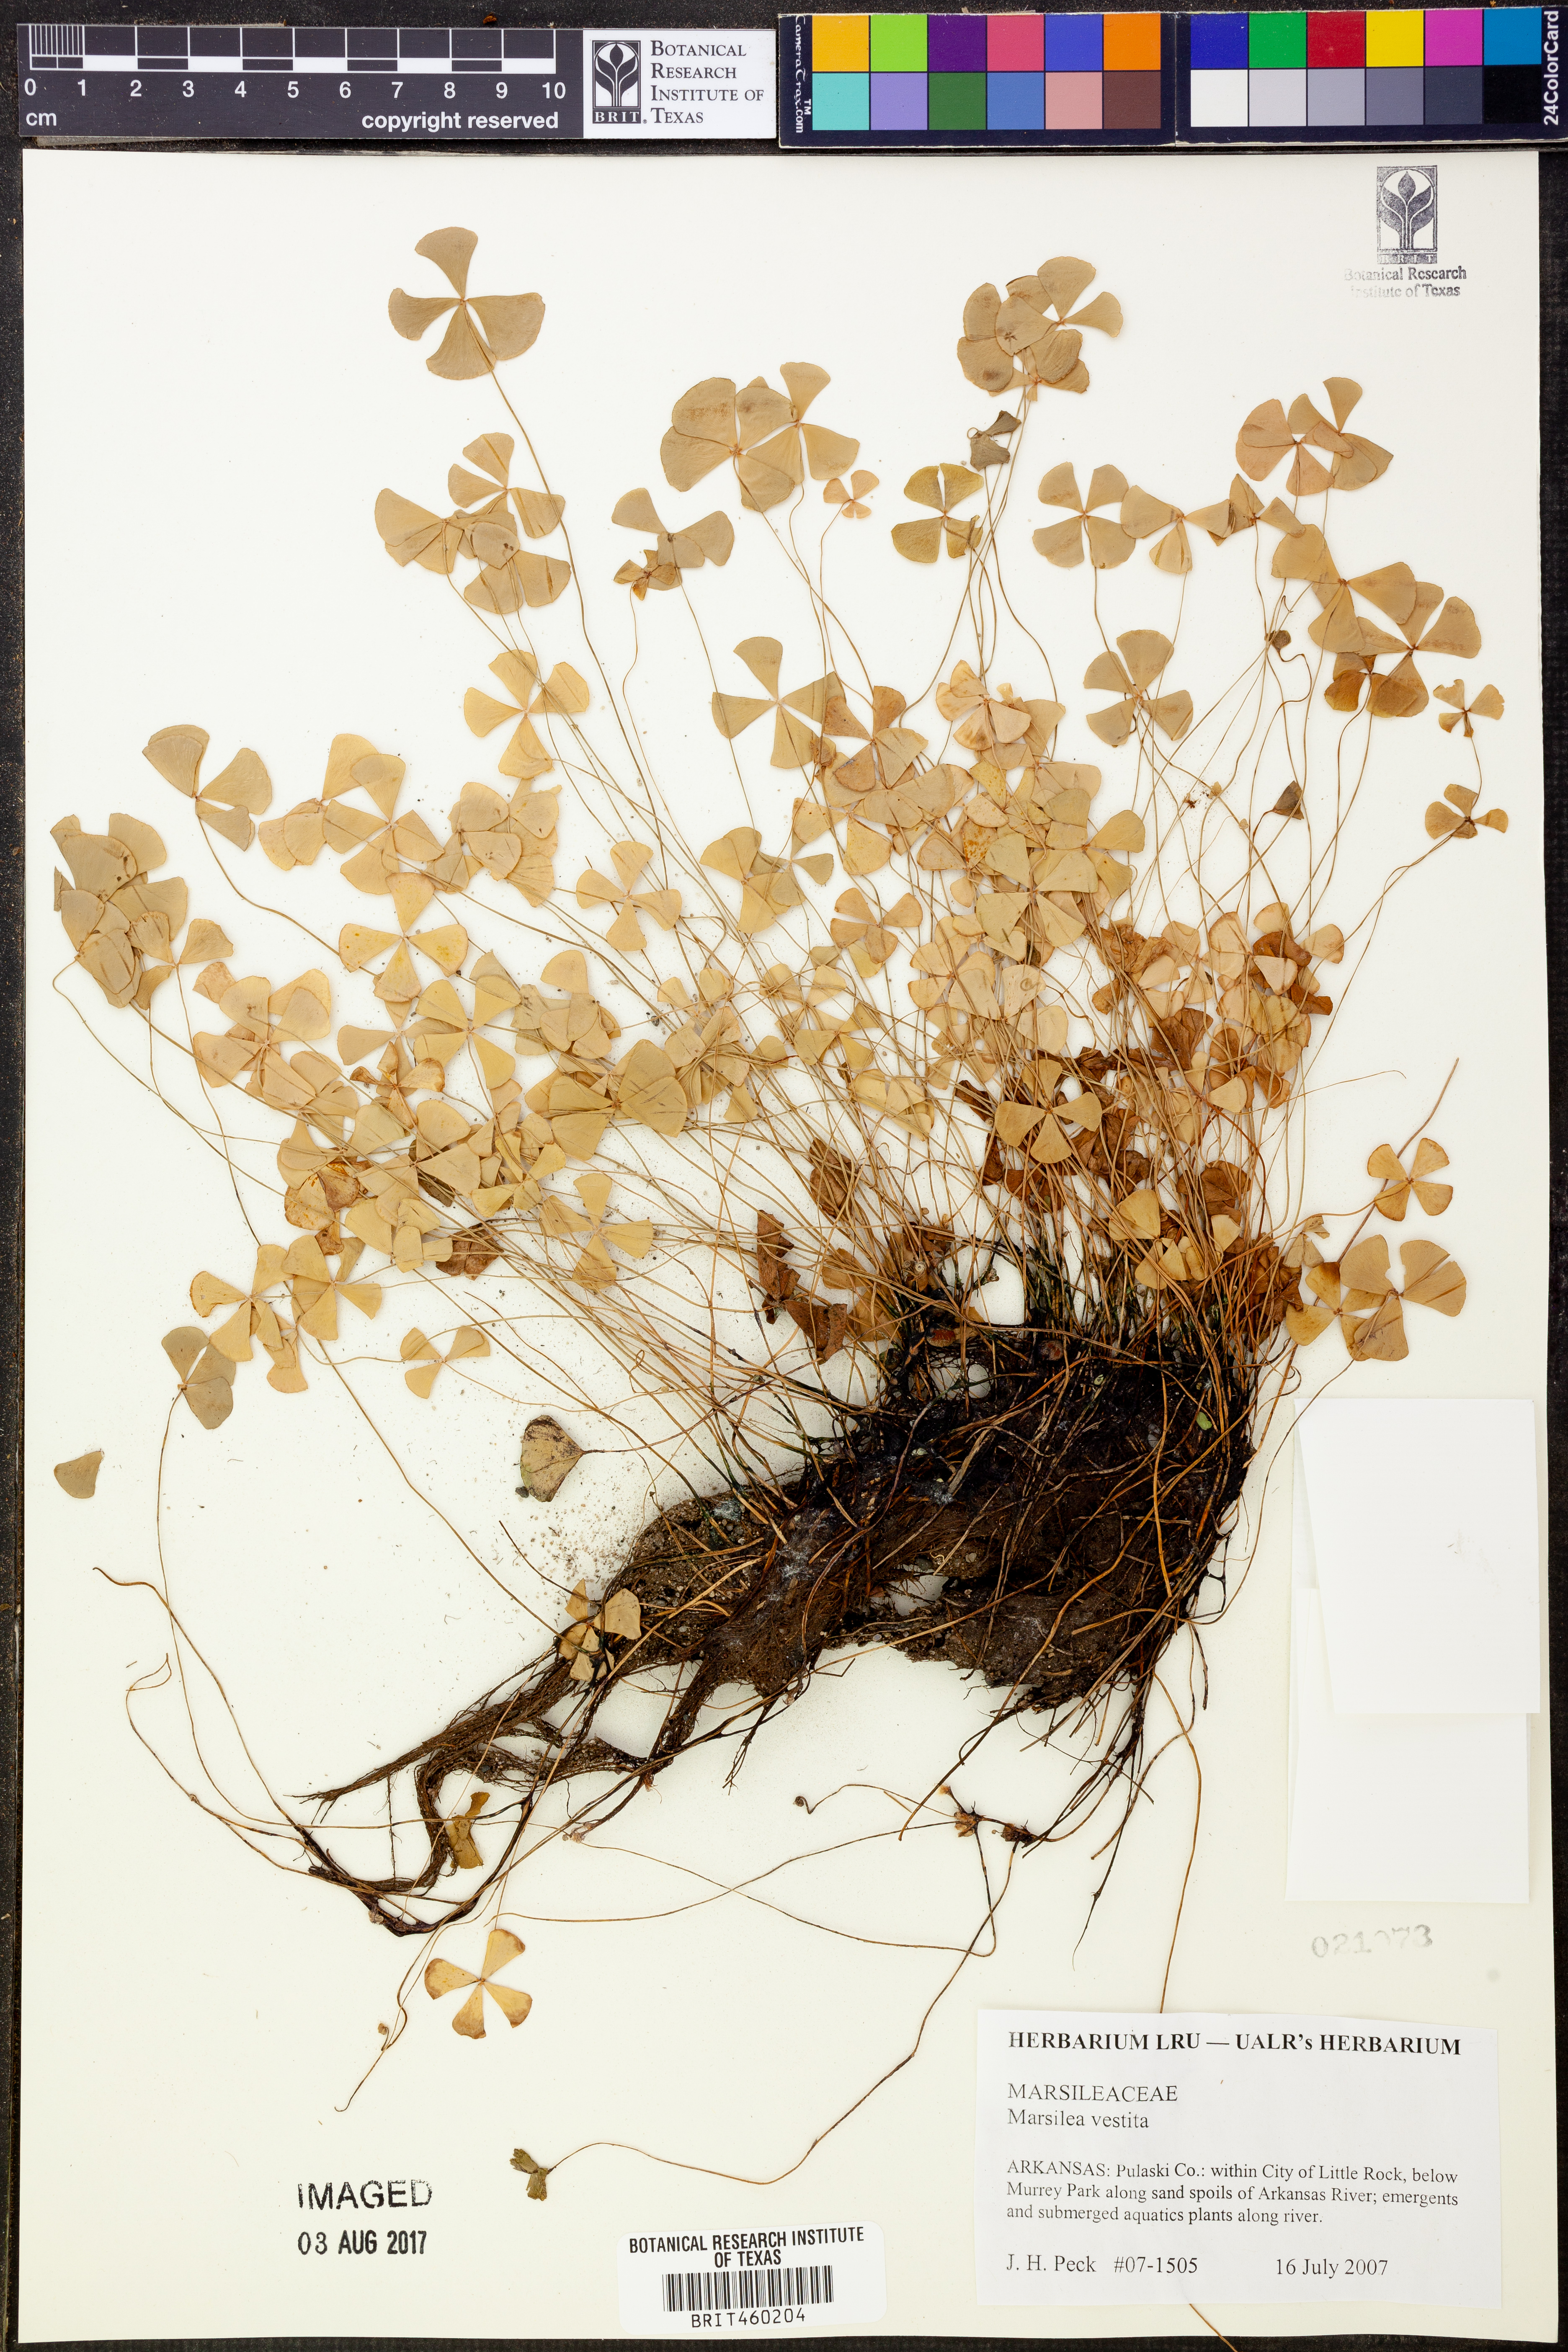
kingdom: Plantae
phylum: Tracheophyta
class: Polypodiopsida
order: Salviniales
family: Marsileaceae
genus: Marsilea
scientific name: Marsilea vestita
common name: Hooked-pepperwort
